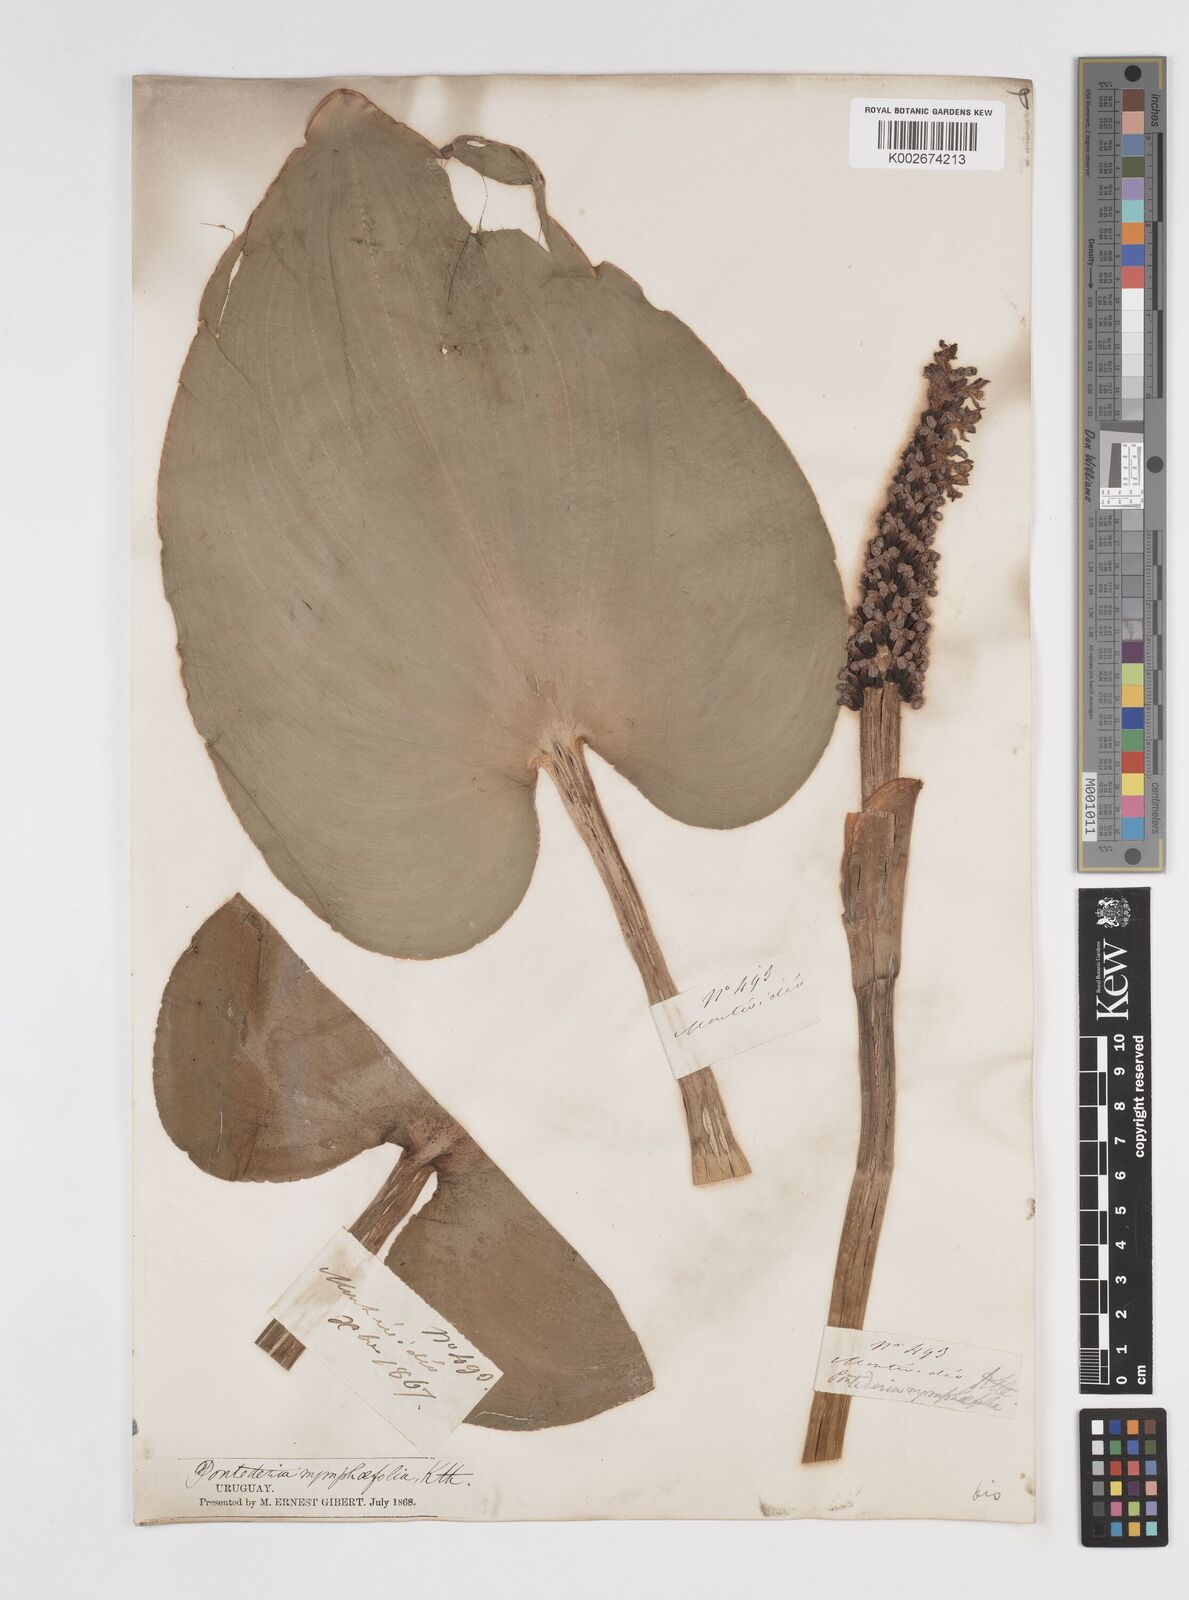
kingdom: Plantae
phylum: Tracheophyta
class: Liliopsida
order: Commelinales
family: Pontederiaceae
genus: Pontederia
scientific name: Pontederia cordata
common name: Pickerelweed
